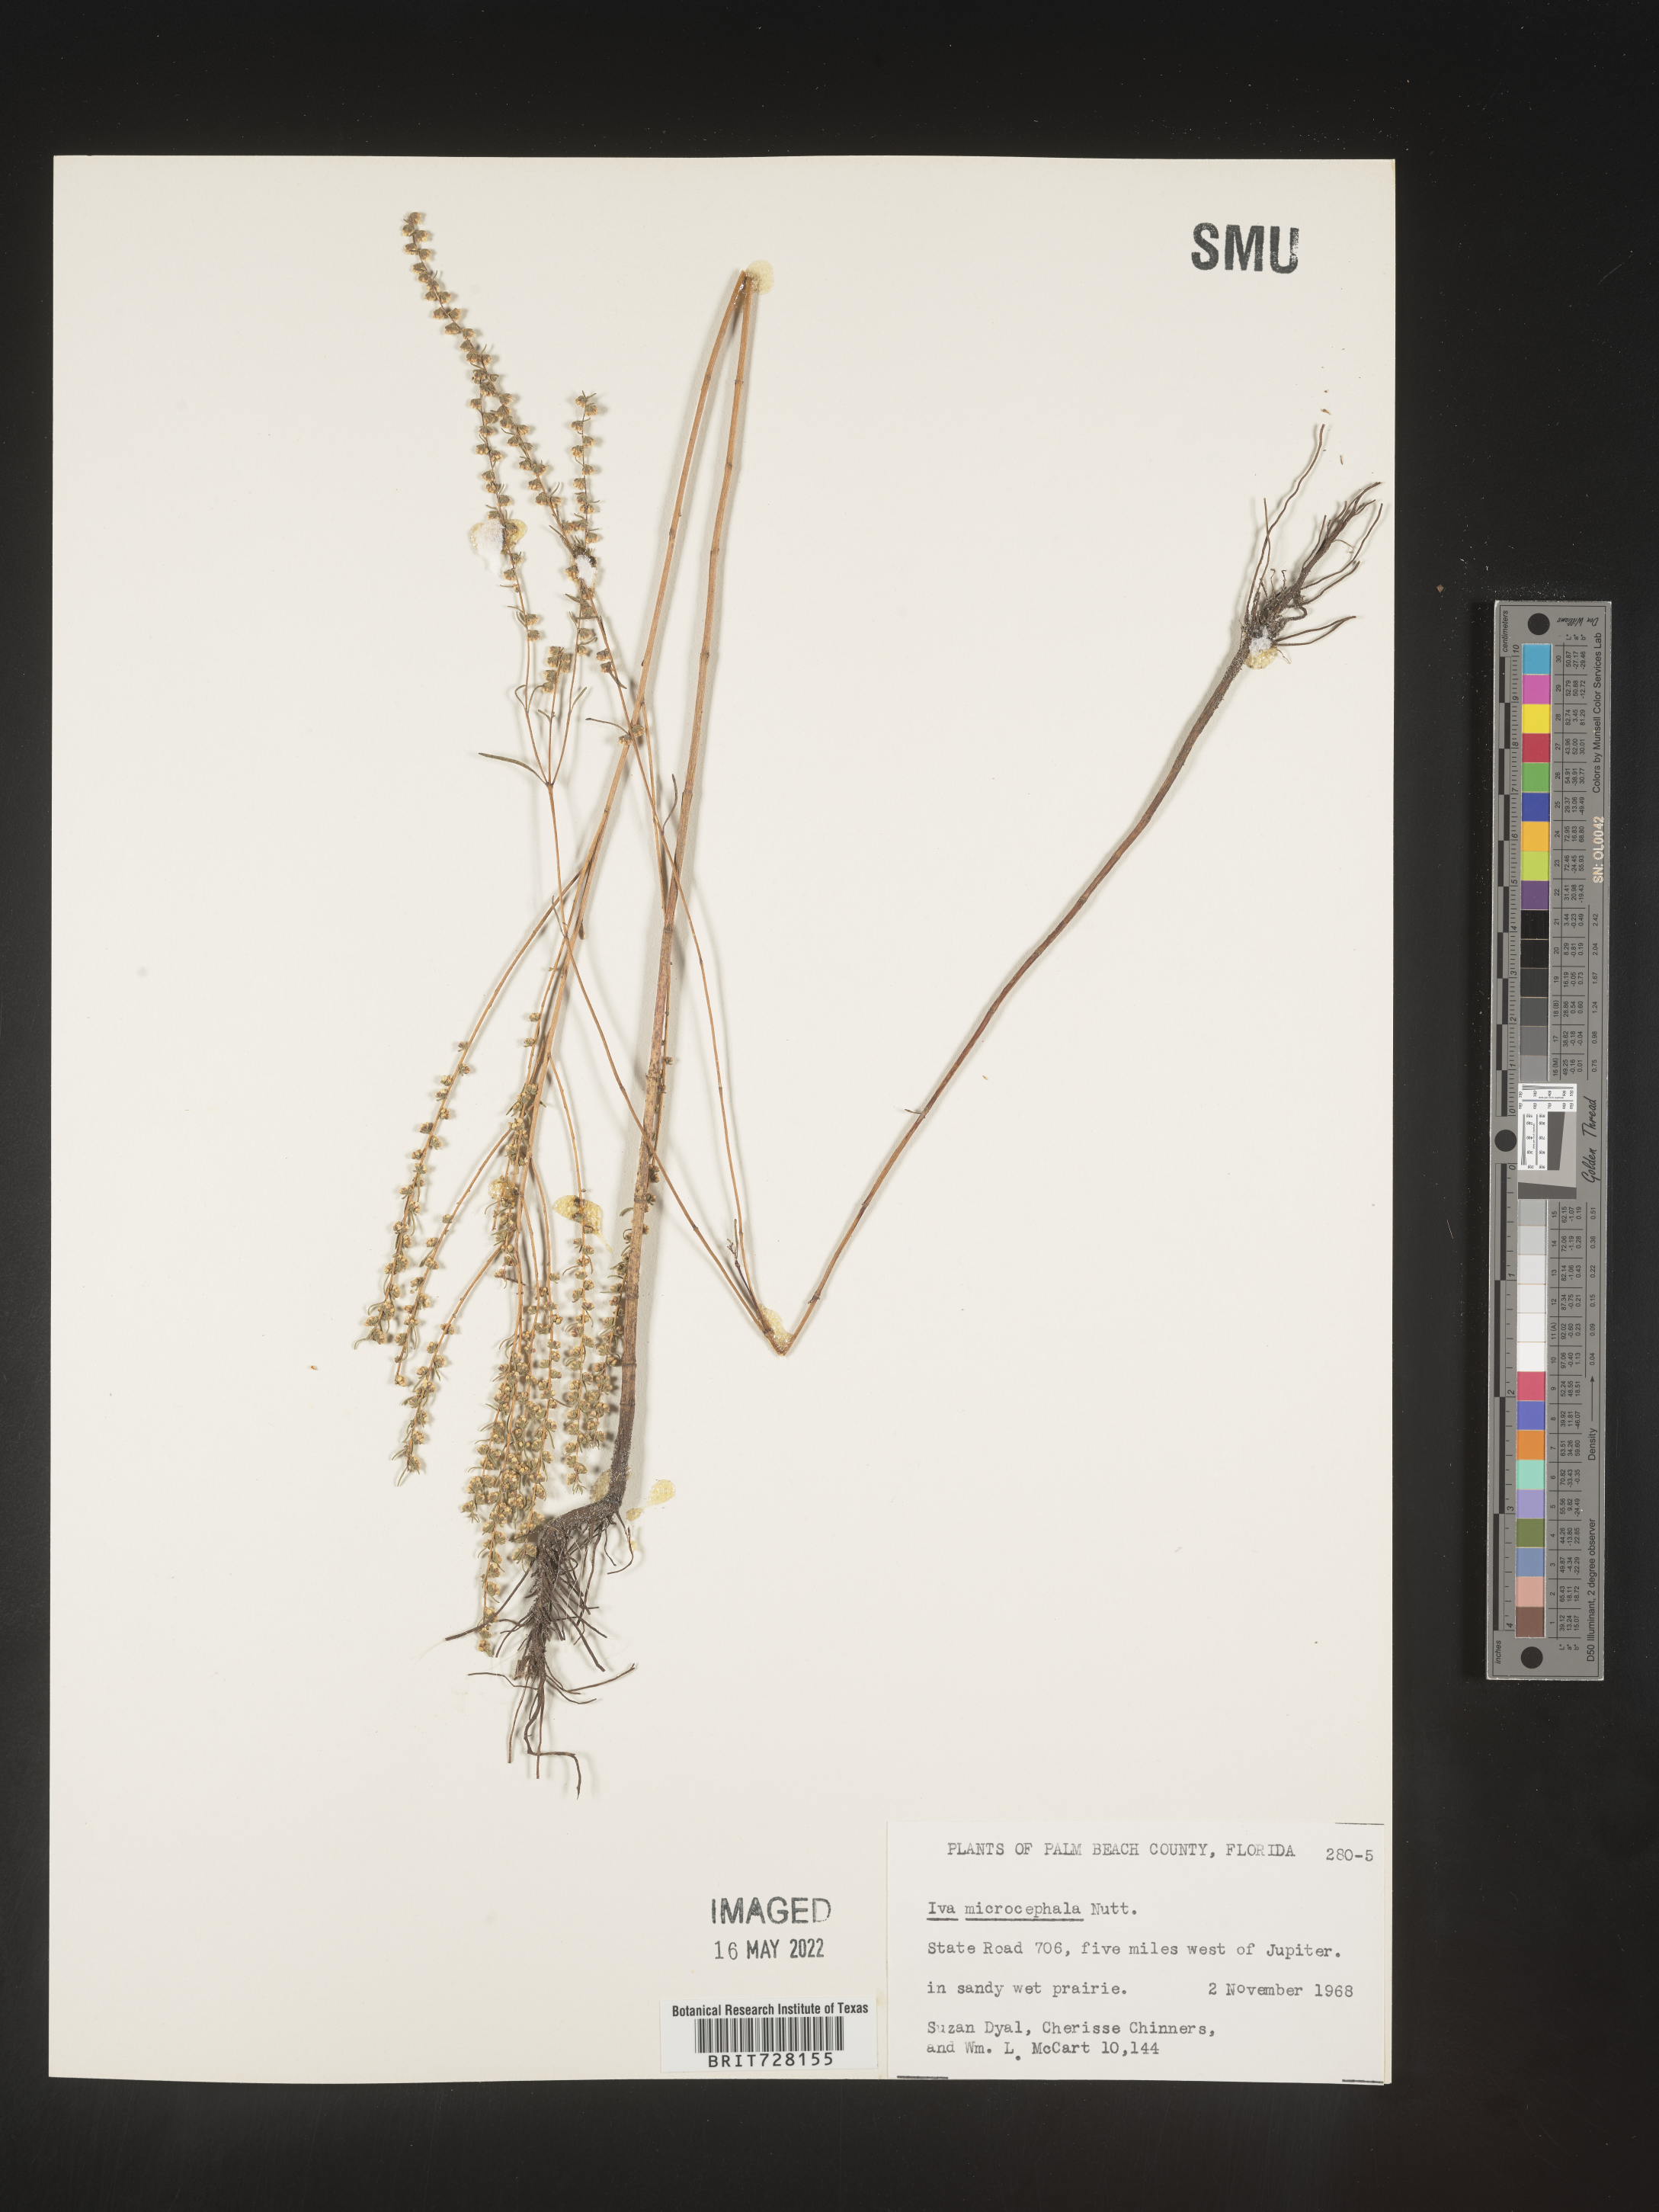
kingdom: Plantae
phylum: Tracheophyta
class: Magnoliopsida
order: Asterales
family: Asteraceae
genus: Iva
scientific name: Iva microcephala
